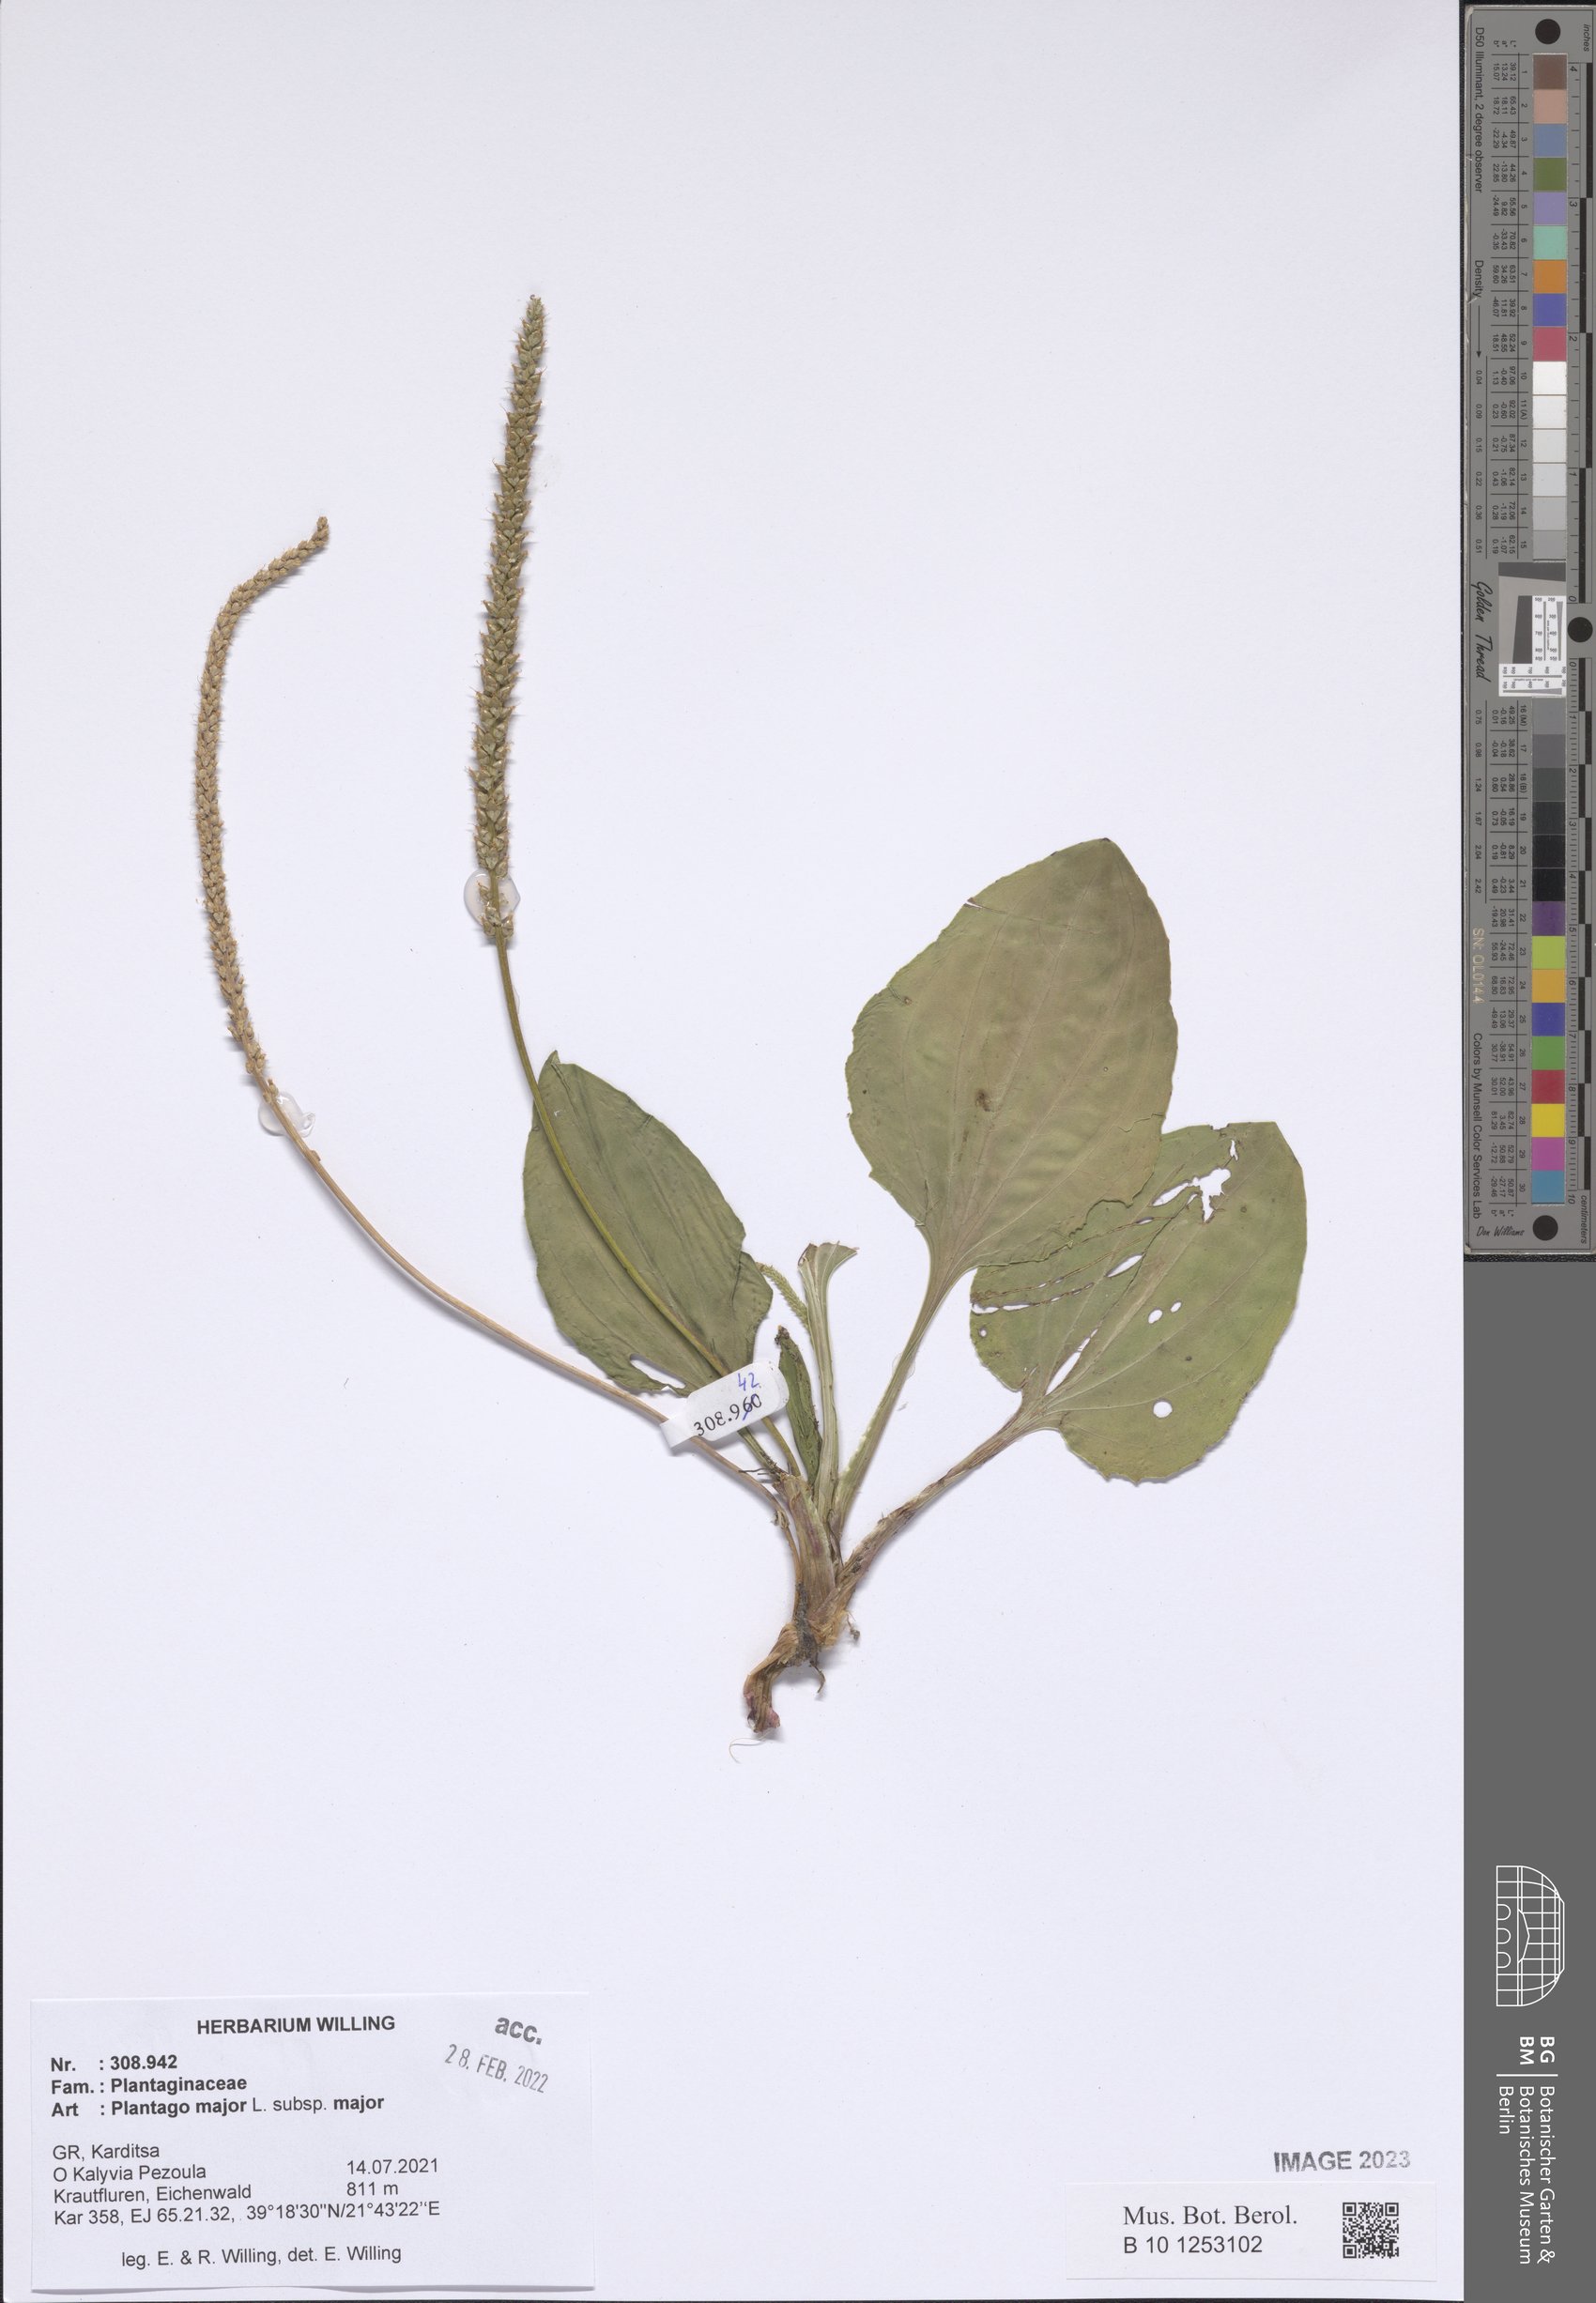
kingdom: Plantae
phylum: Tracheophyta
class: Magnoliopsida
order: Lamiales
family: Plantaginaceae
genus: Plantago
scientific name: Plantago major
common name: Common plantain
